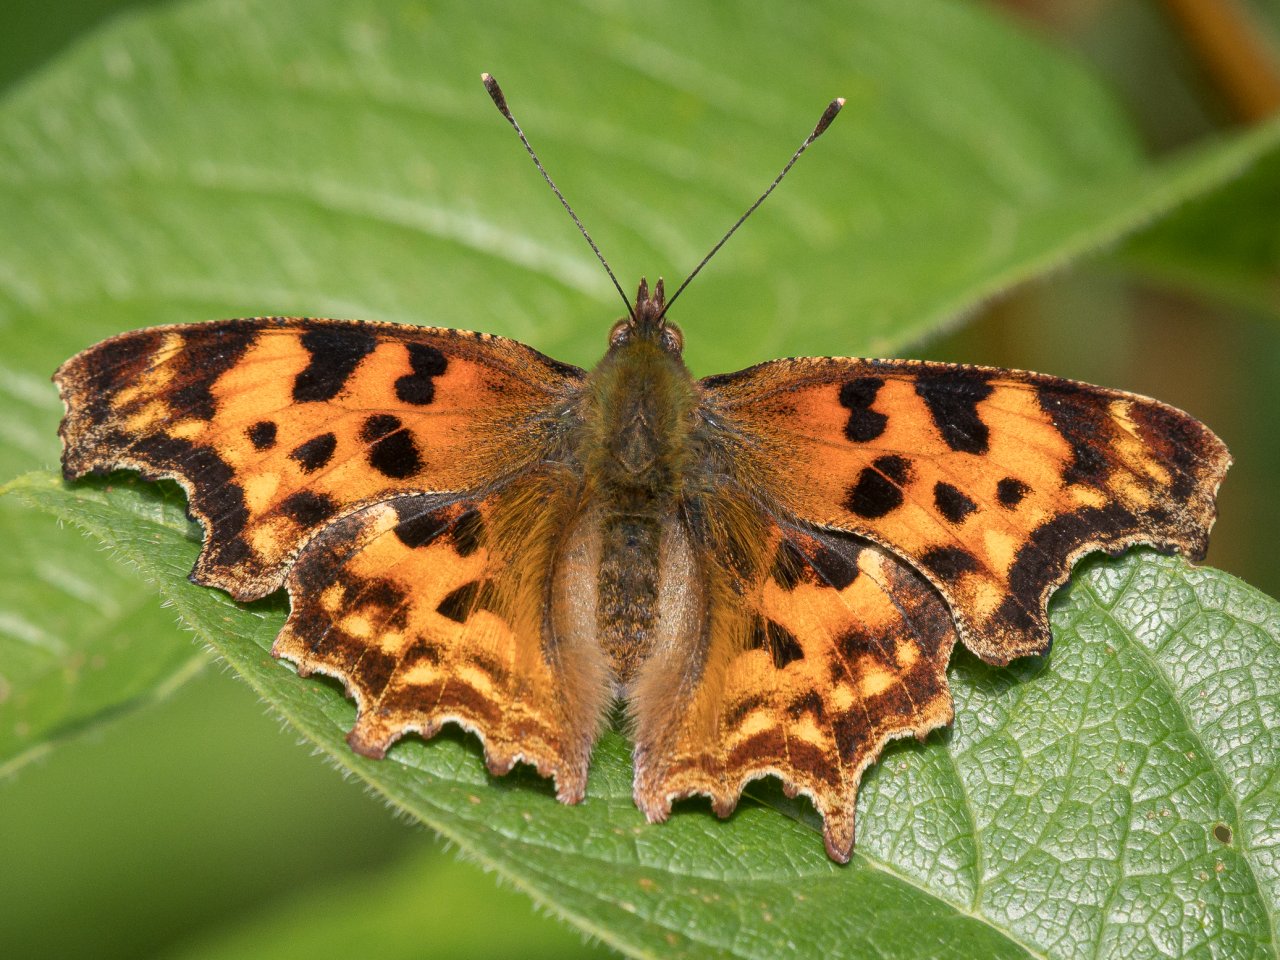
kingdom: Animalia
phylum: Arthropoda
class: Insecta
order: Lepidoptera
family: Nymphalidae
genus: Polygonia
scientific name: Polygonia satyrus
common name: Satyr Comma
